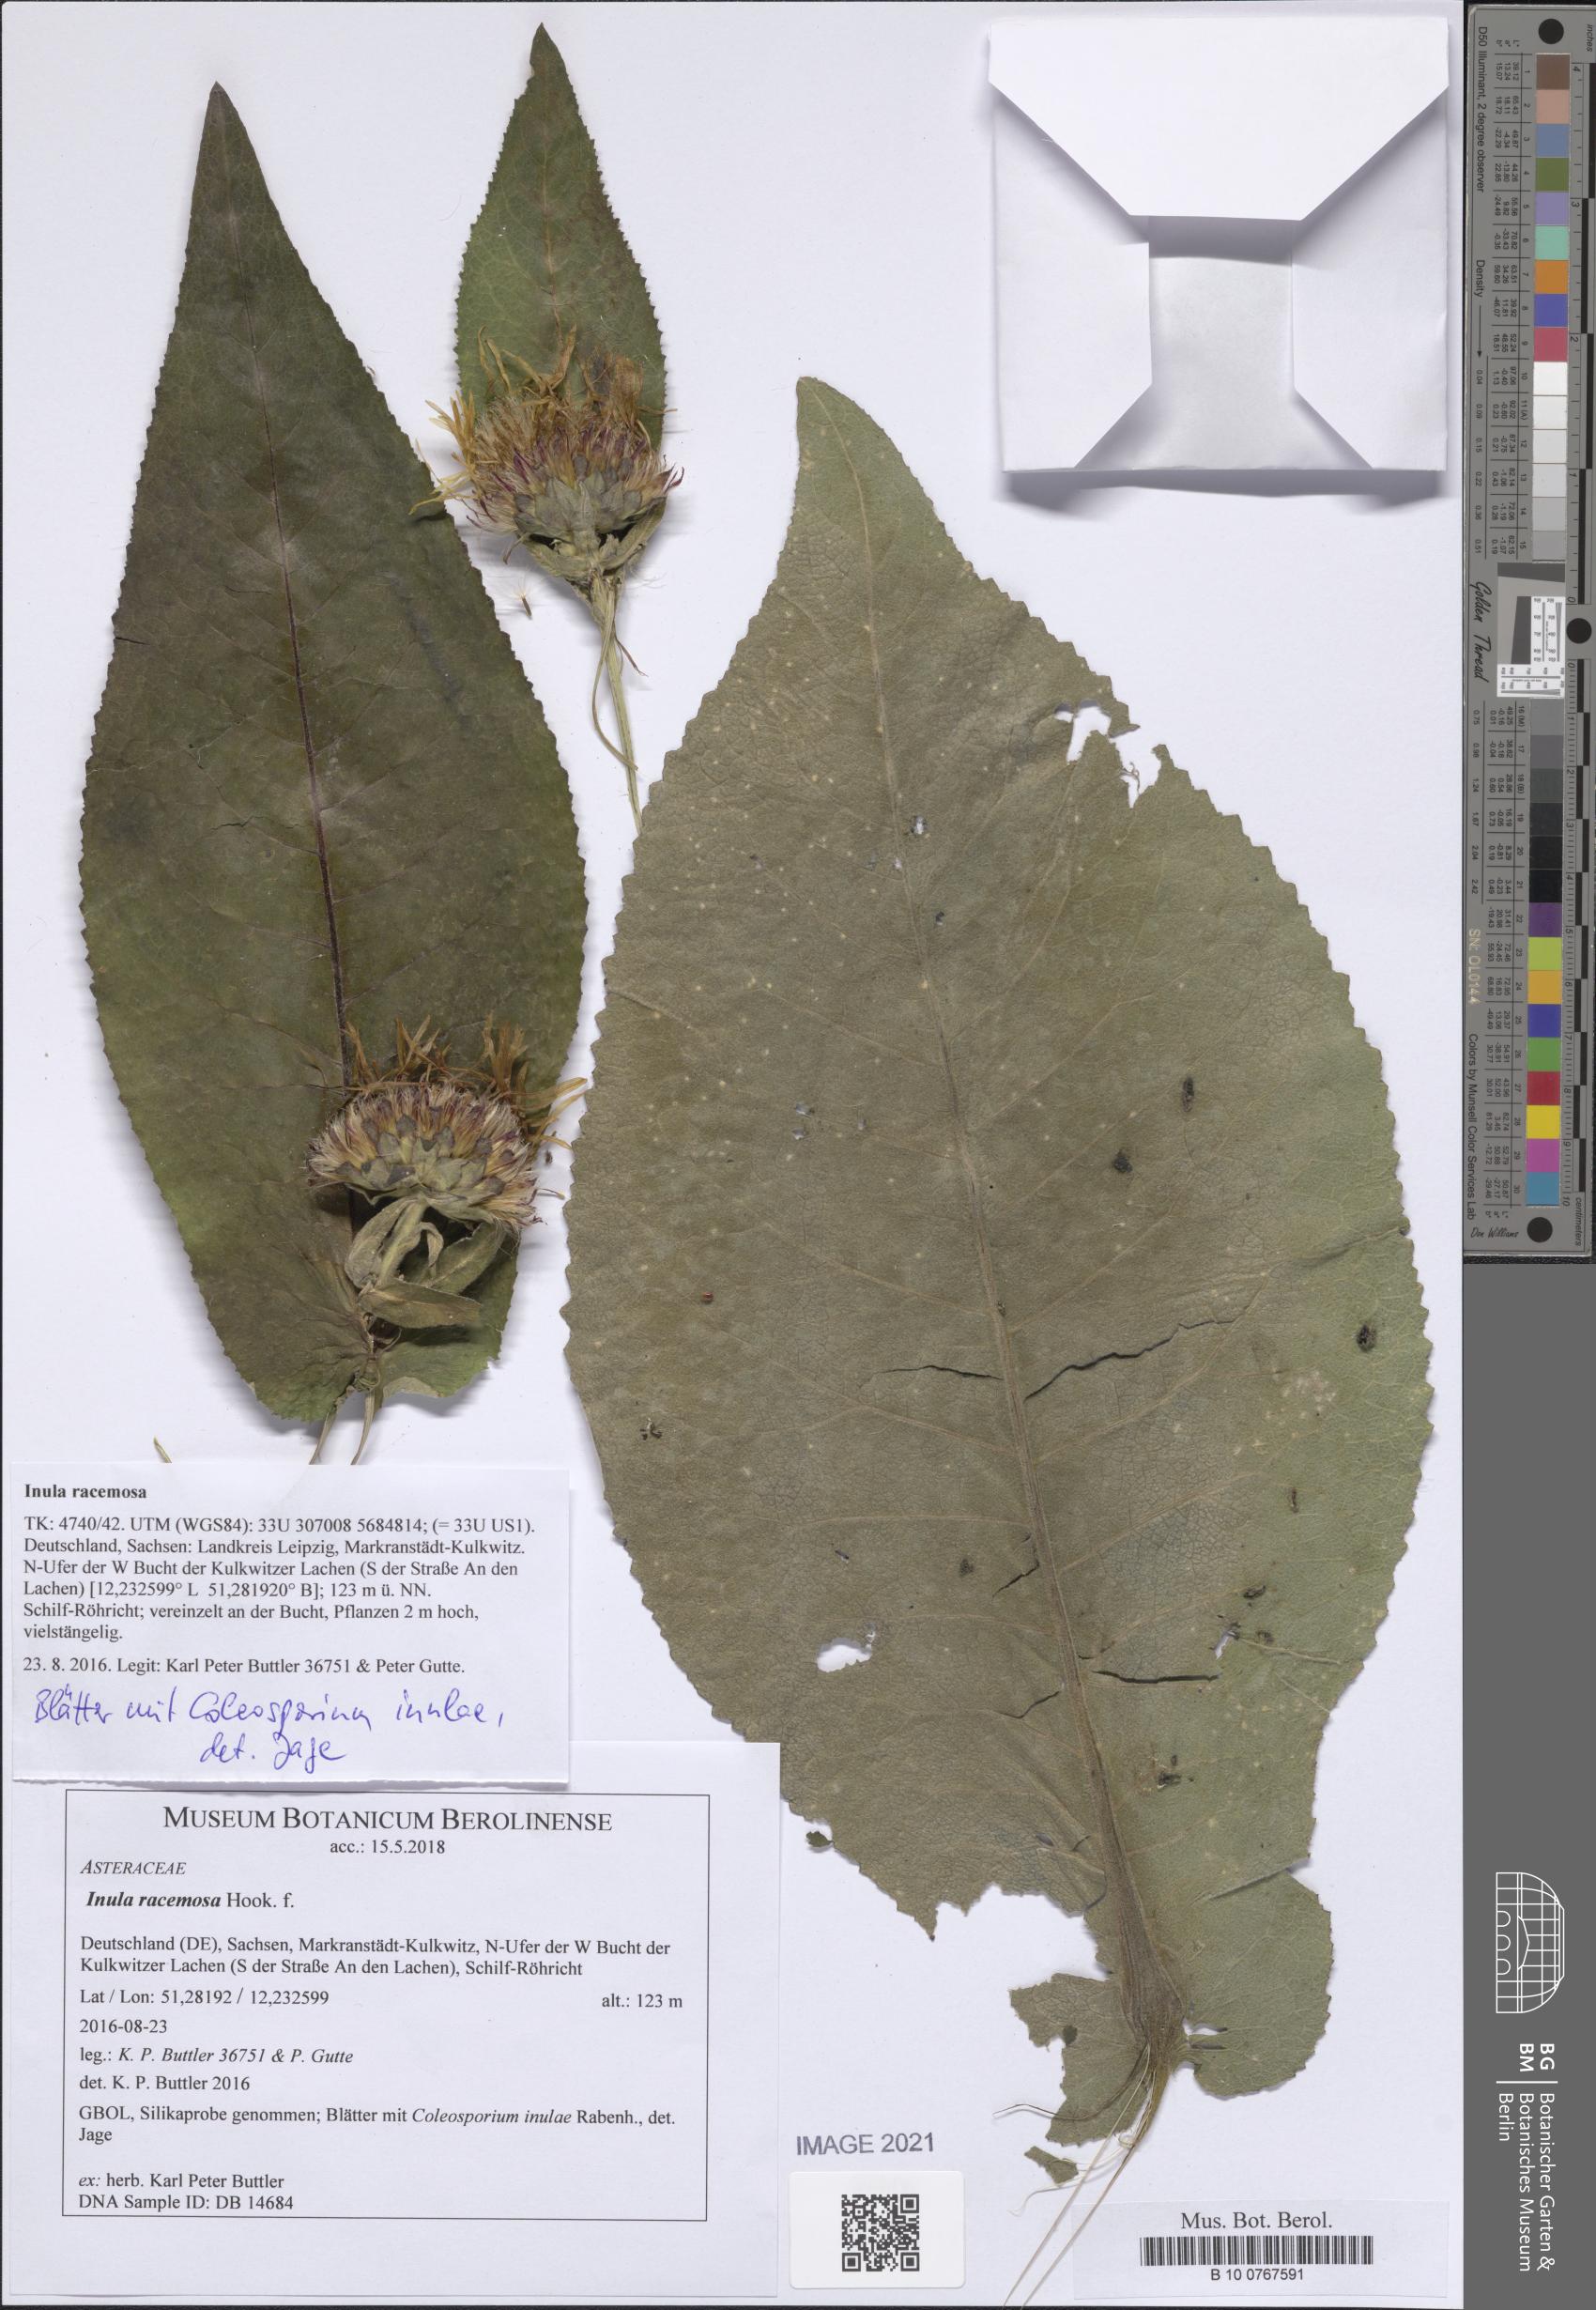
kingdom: Plantae
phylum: Tracheophyta
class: Magnoliopsida
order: Asterales
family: Asteraceae
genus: Inula
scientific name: Inula racemosa
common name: Indian elecampane
